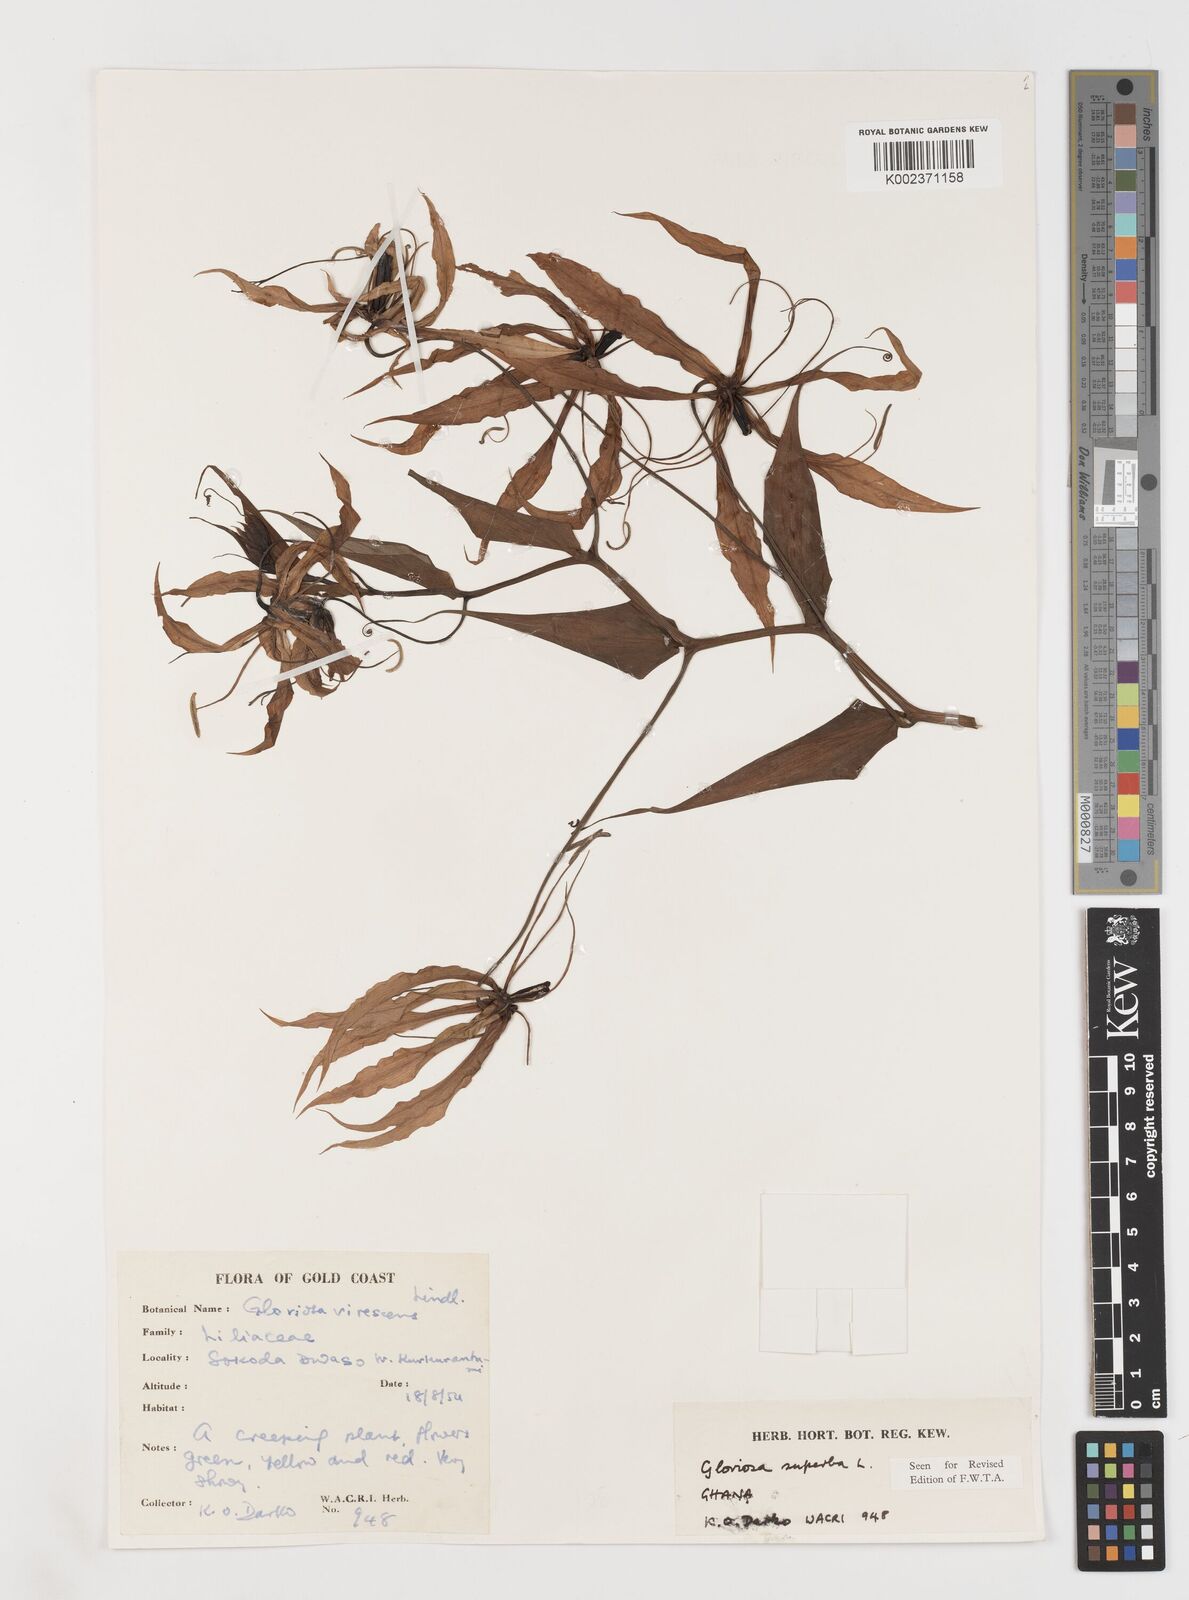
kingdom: Plantae
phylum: Tracheophyta
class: Liliopsida
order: Liliales
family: Colchicaceae
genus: Gloriosa
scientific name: Gloriosa simplex
